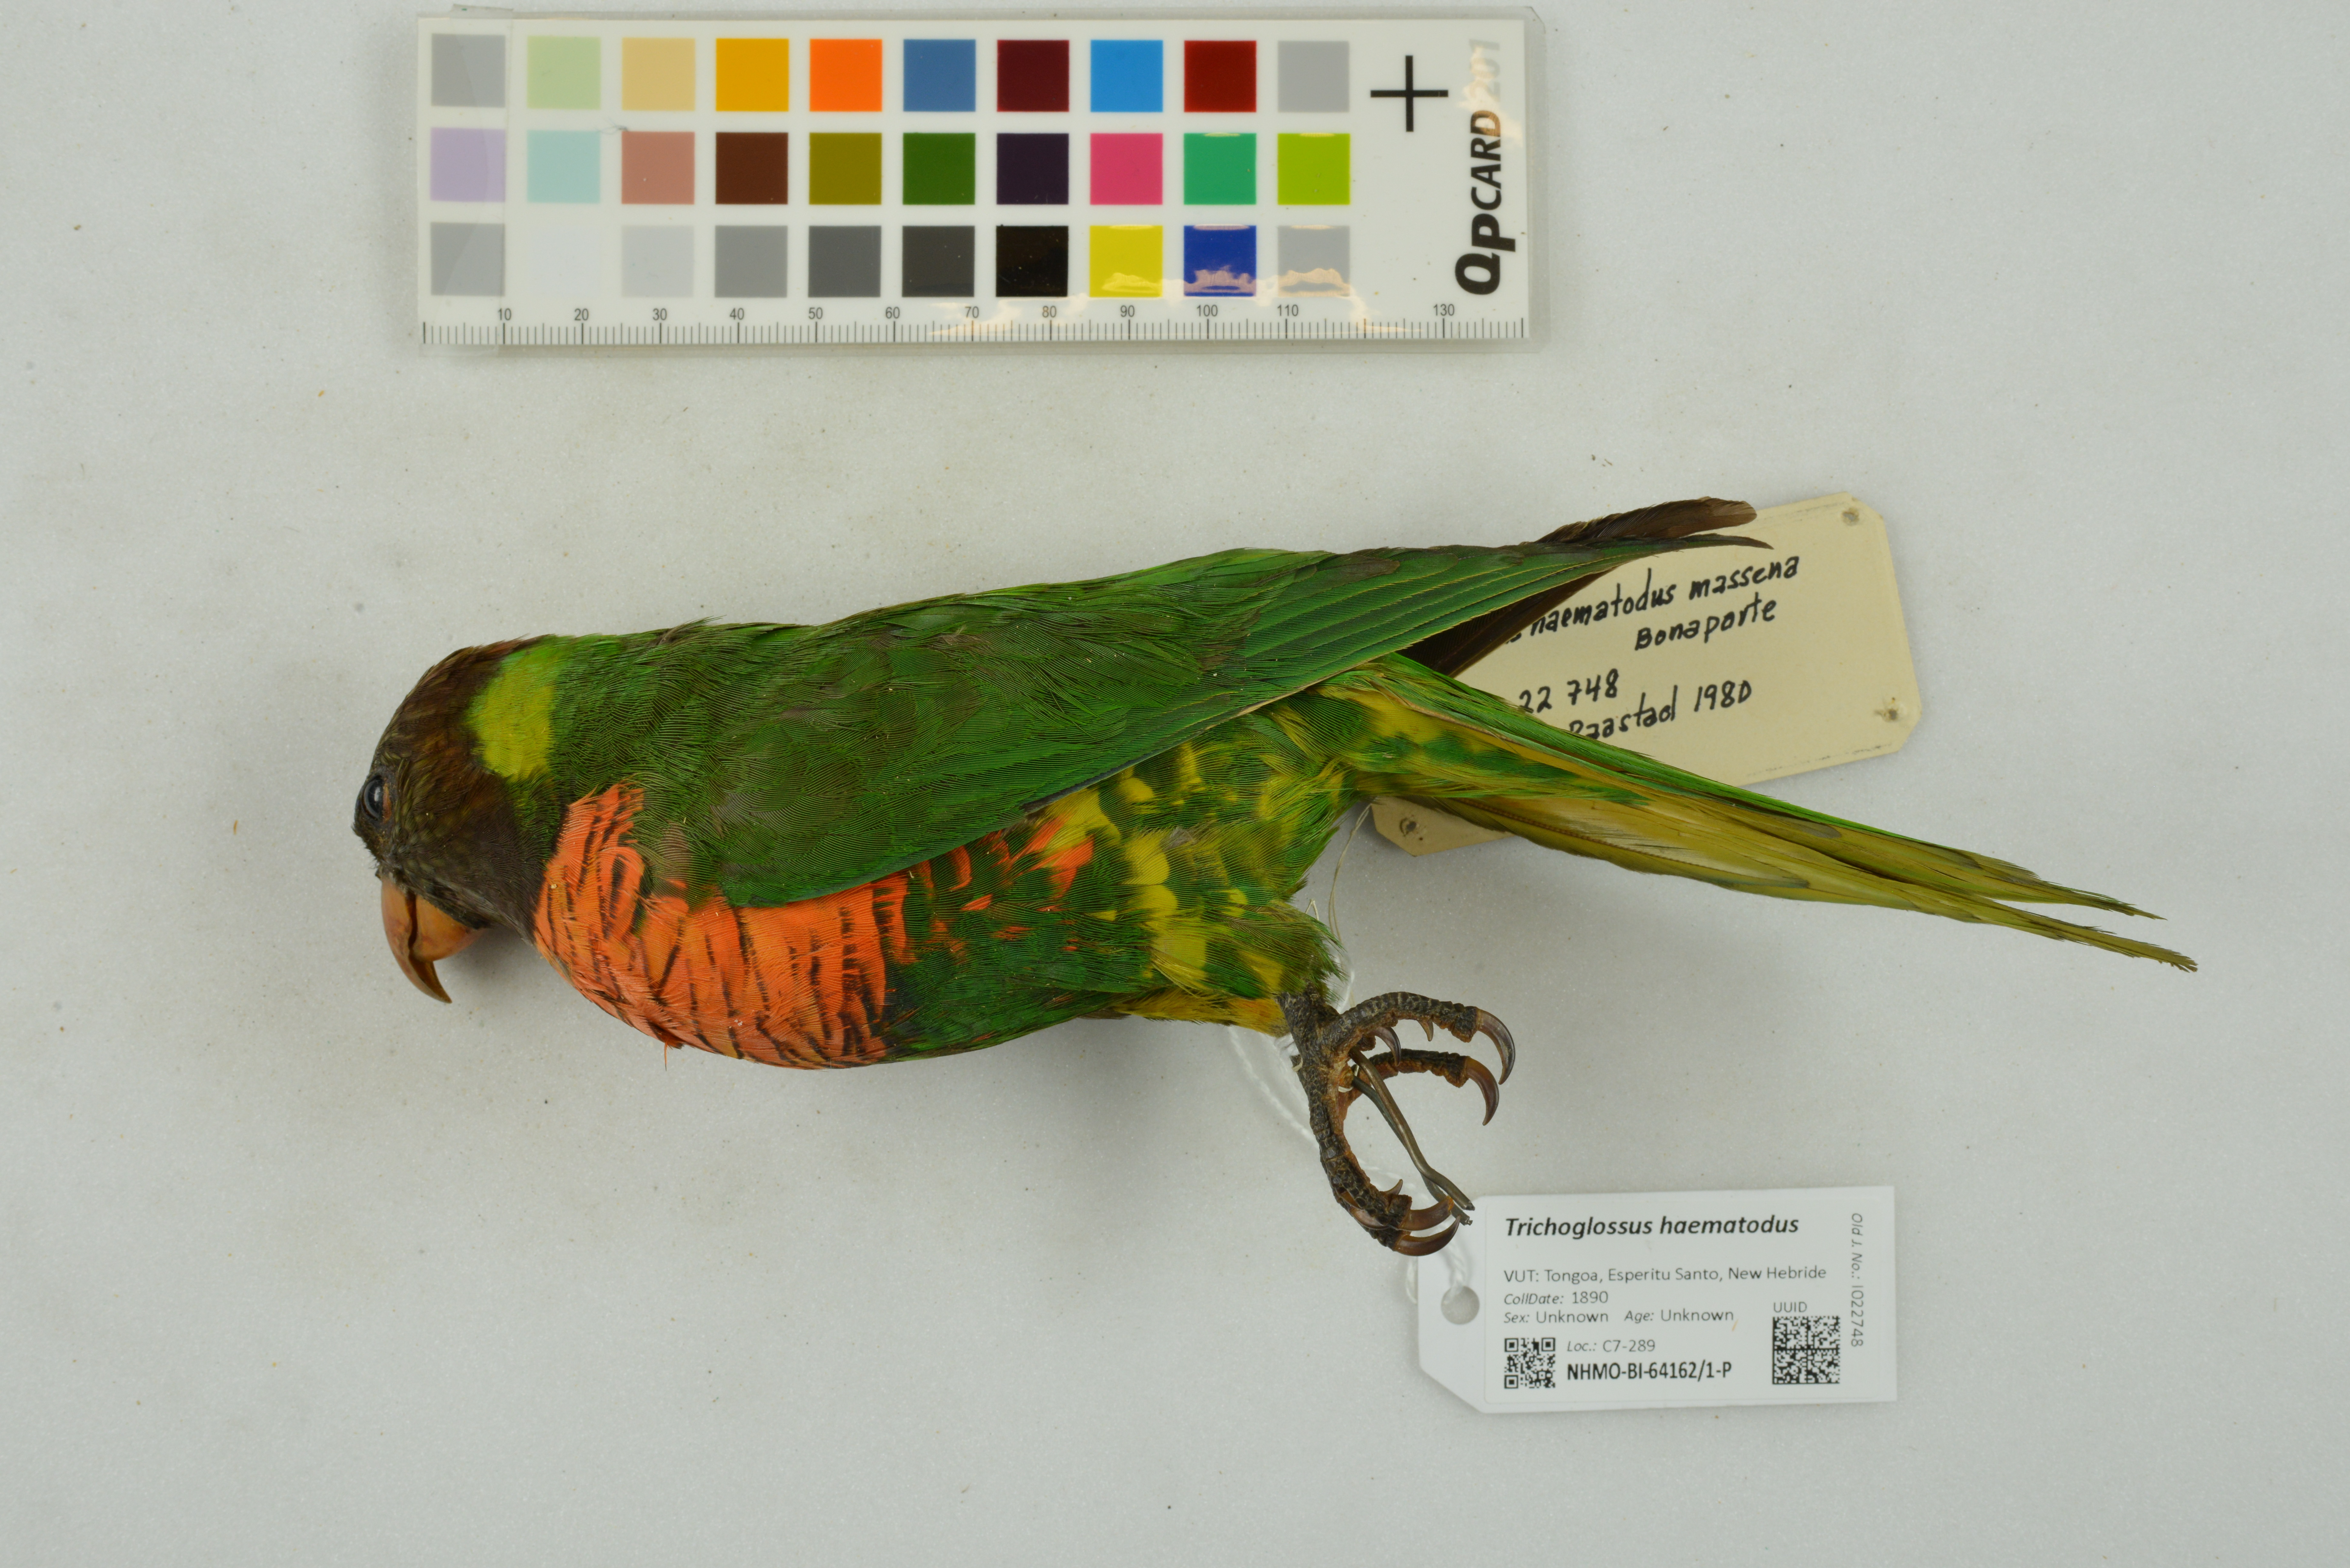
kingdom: Animalia
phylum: Chordata
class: Aves
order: Psittaciformes
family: Psittacidae
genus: Trichoglossus
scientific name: Trichoglossus haematodus
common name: Coconut lorikeet
